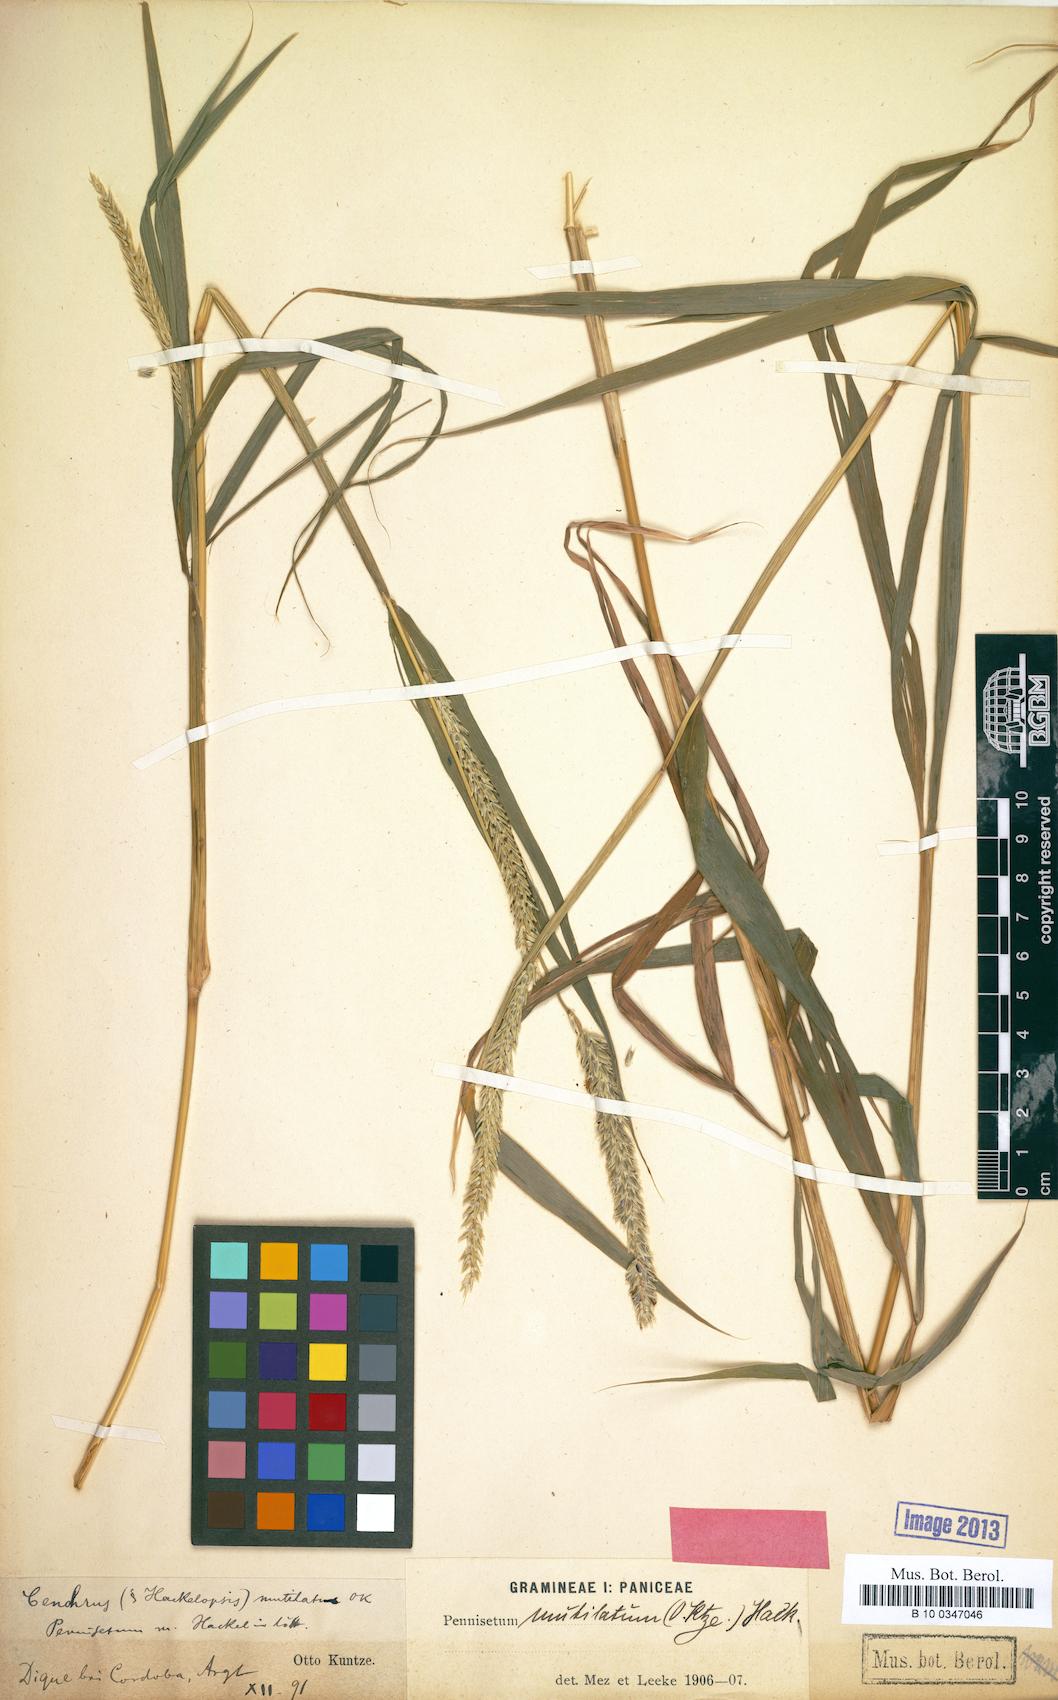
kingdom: Plantae
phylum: Tracheophyta
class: Liliopsida
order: Poales
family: Poaceae
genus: Cenchrus
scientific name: Cenchrus mutilatus
